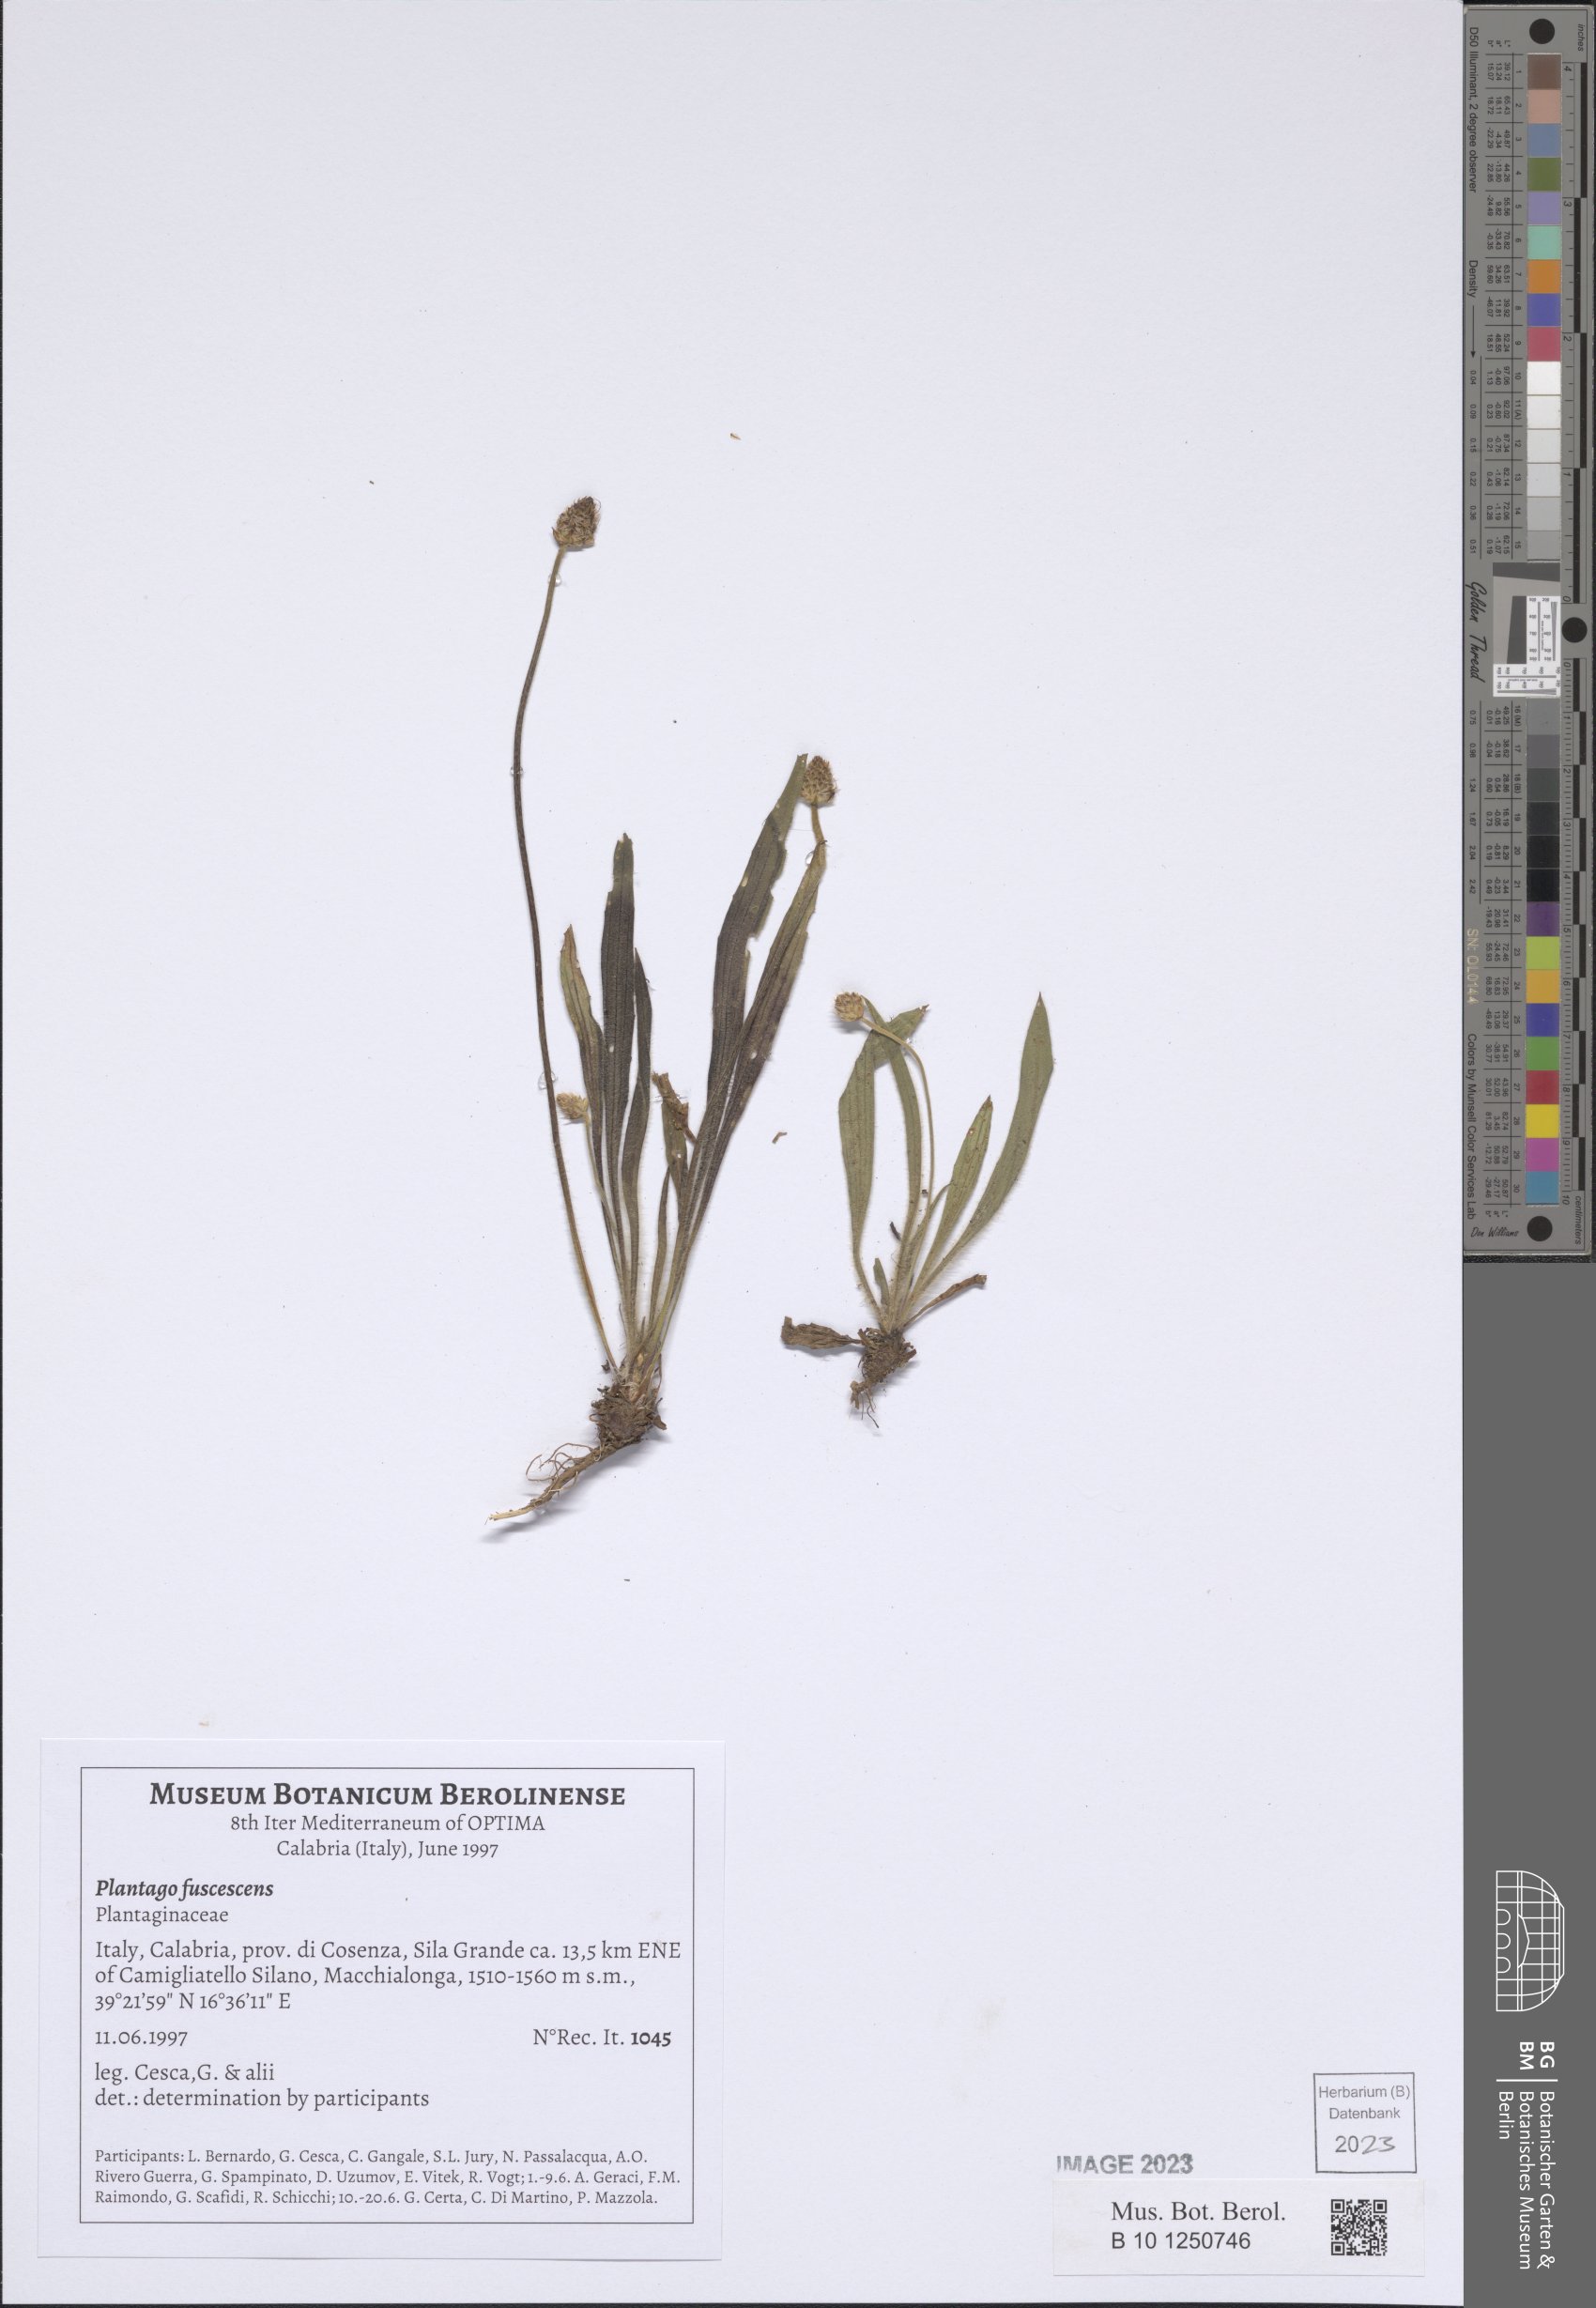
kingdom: Plantae
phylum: Tracheophyta
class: Magnoliopsida
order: Lamiales
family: Plantaginaceae
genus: Plantago
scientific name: Plantago atrata
